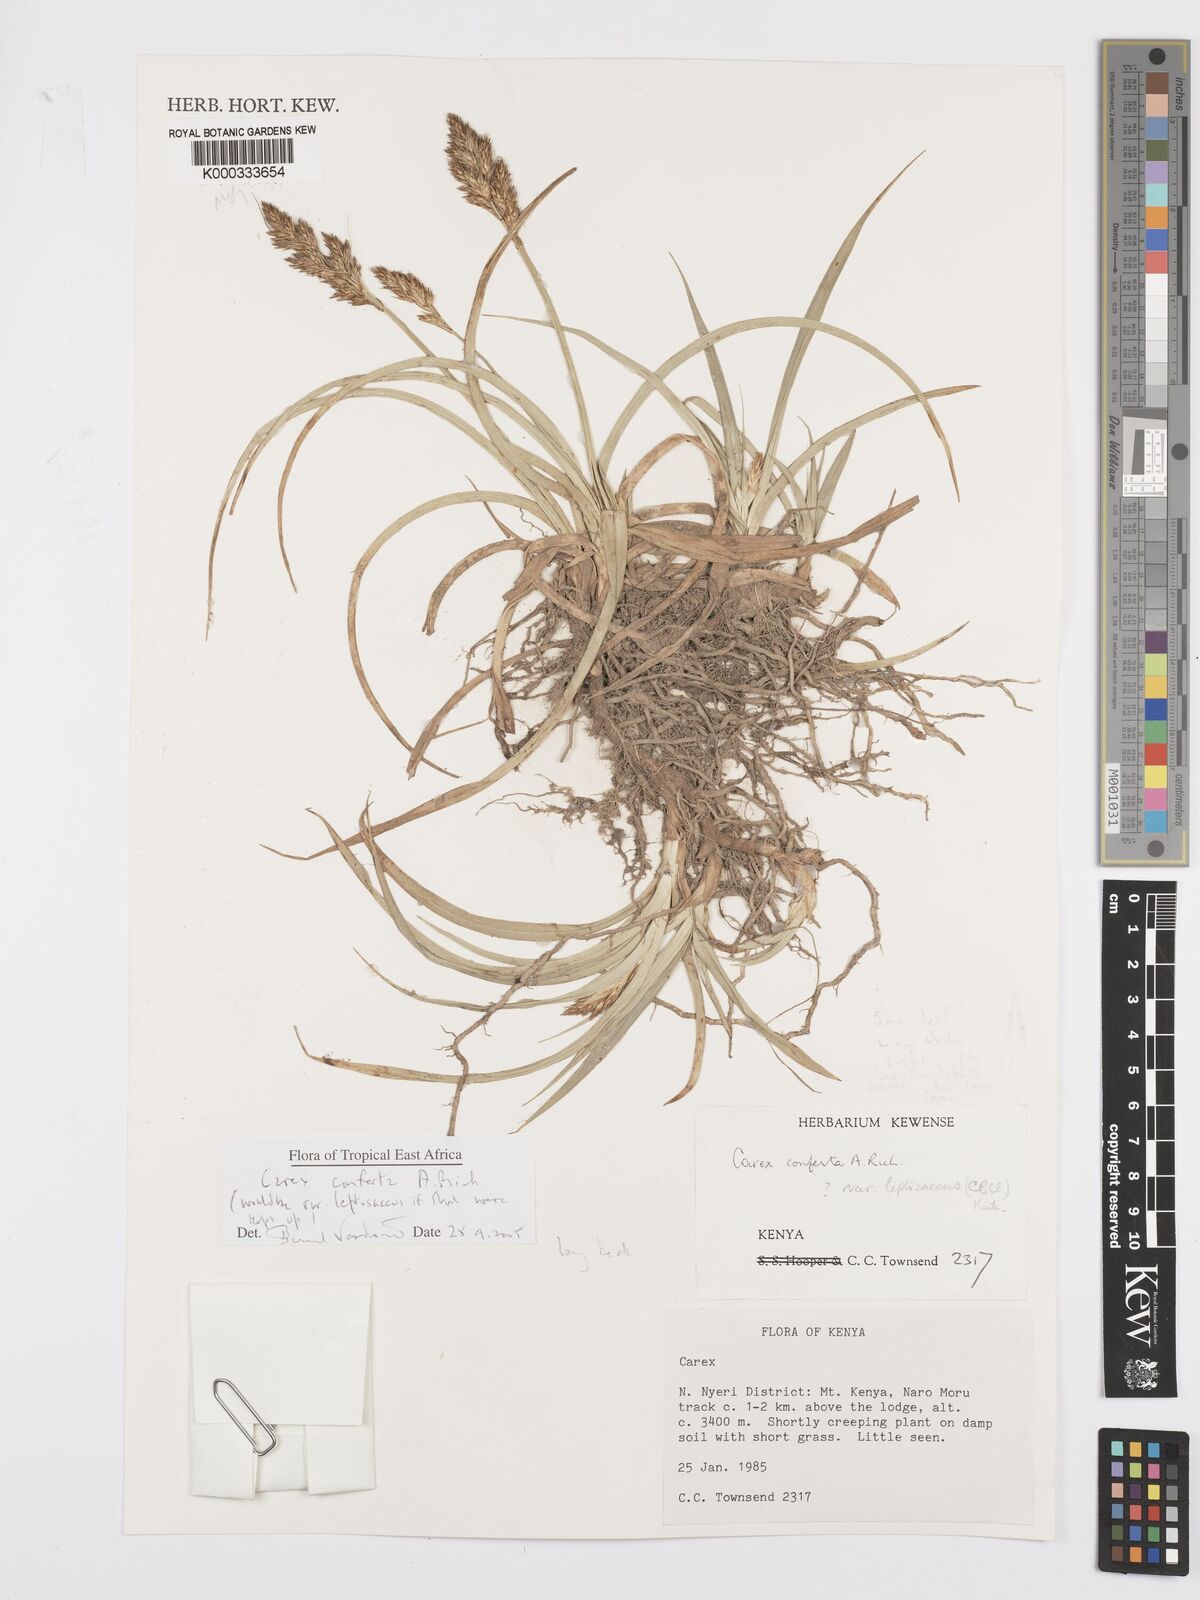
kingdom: Plantae
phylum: Tracheophyta
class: Liliopsida
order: Poales
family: Cyperaceae
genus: Carex
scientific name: Carex conferta
